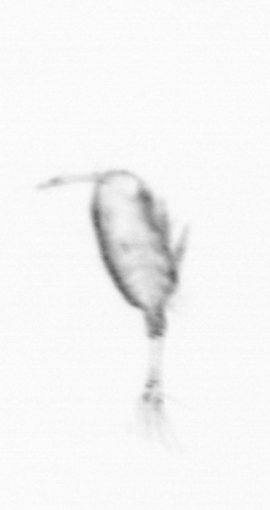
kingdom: Animalia
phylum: Arthropoda
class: Copepoda
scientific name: Copepoda
